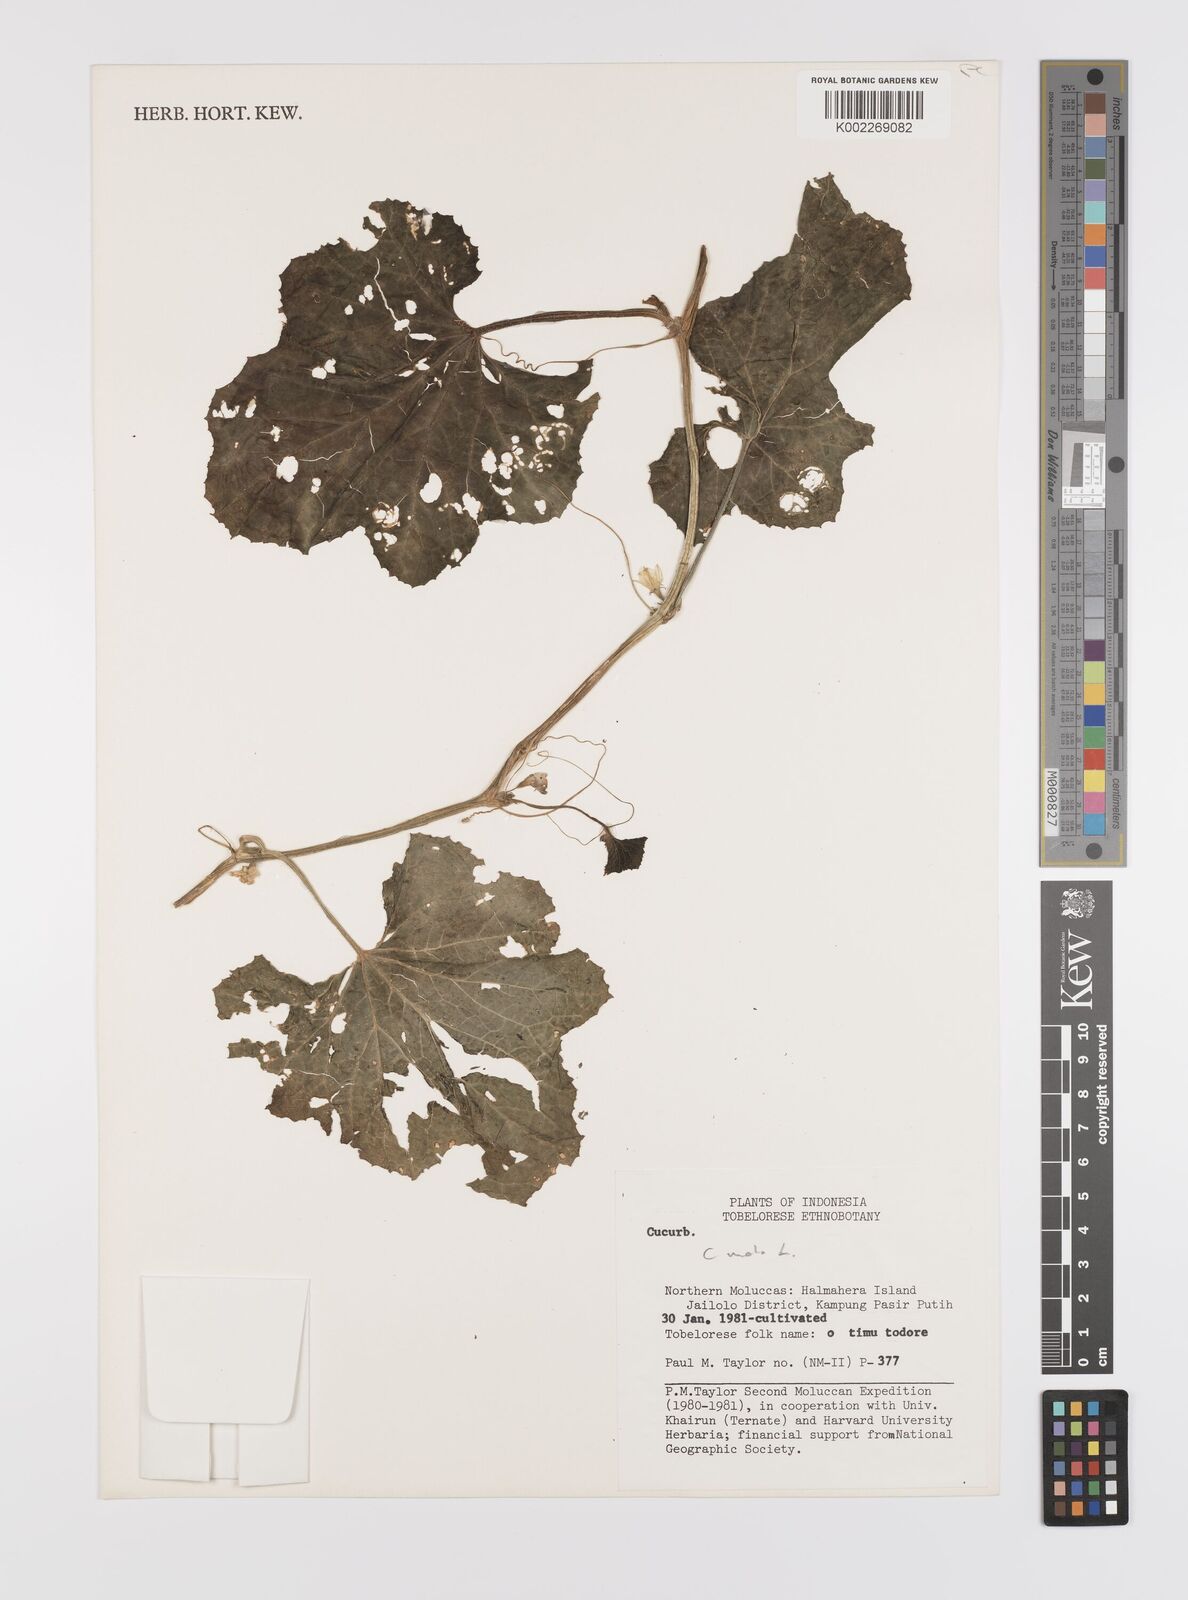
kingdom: Plantae
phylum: Tracheophyta
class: Magnoliopsida
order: Cucurbitales
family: Cucurbitaceae
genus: Cucumis
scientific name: Cucumis melo
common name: Melon
